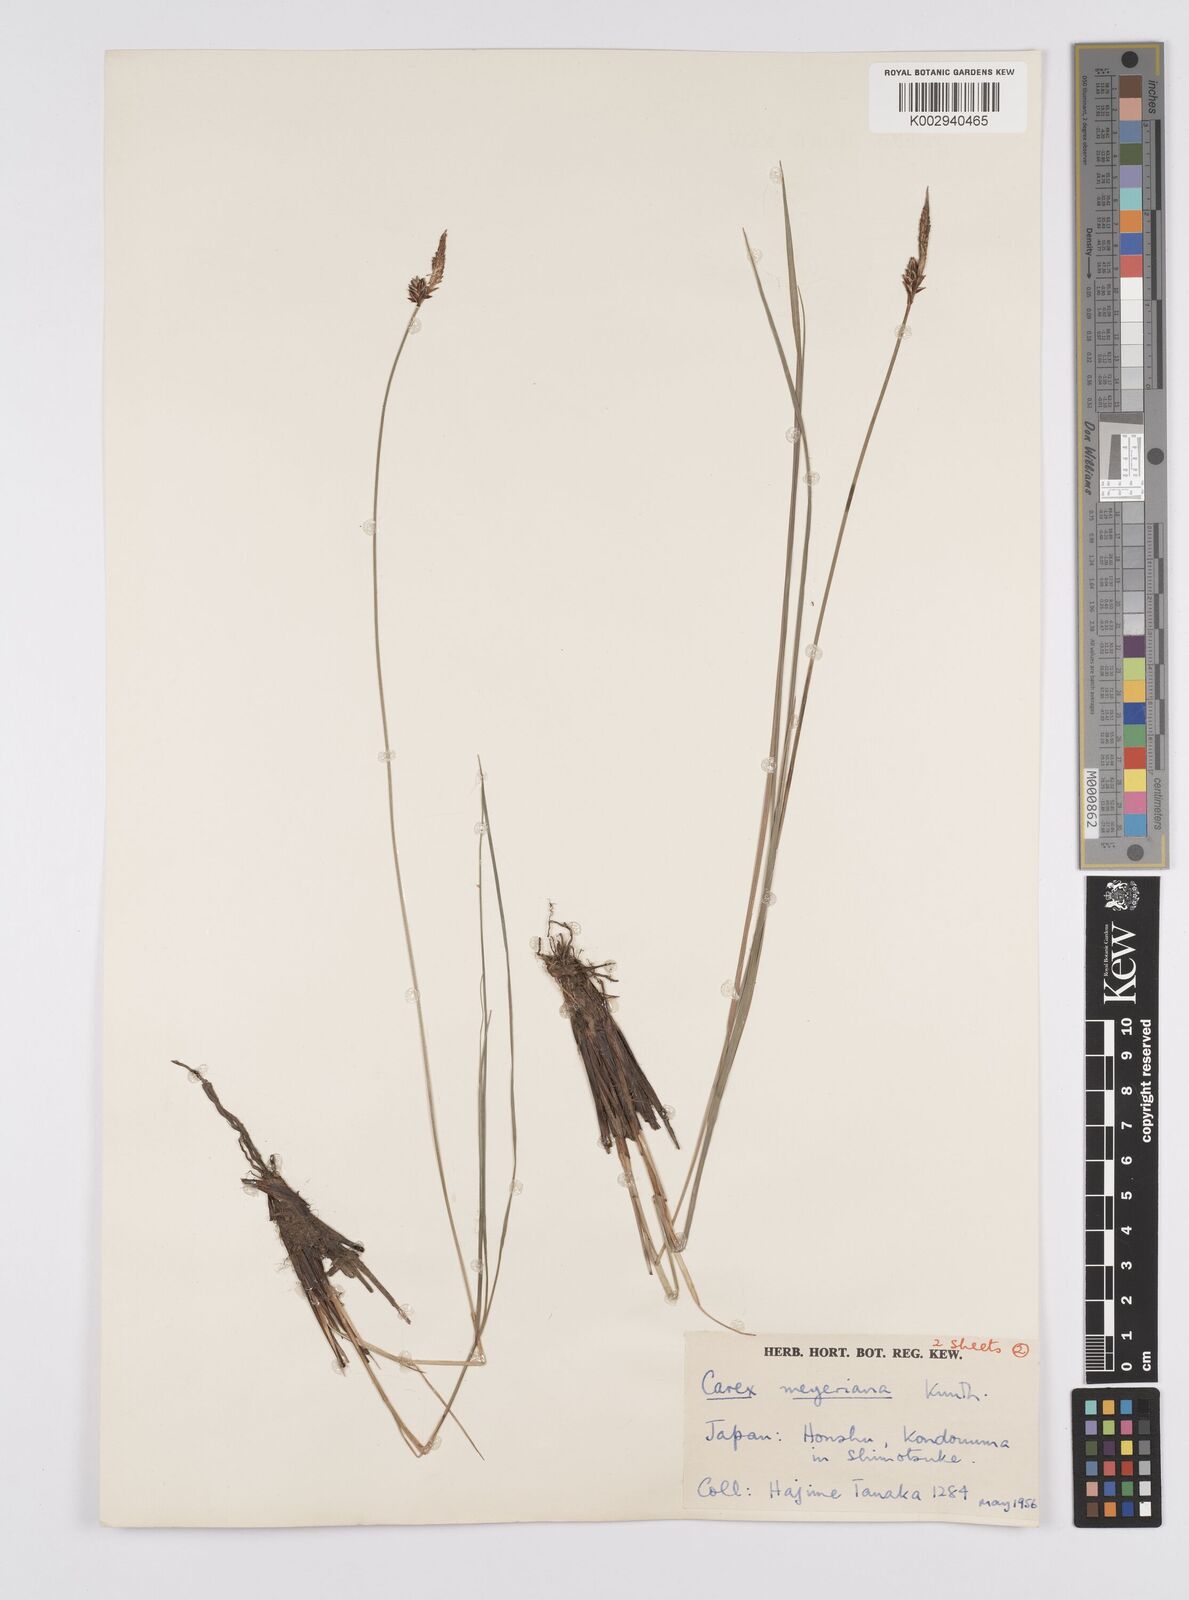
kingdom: Plantae
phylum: Tracheophyta
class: Liliopsida
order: Poales
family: Cyperaceae
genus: Carex
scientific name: Carex meyeriana
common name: Wula sedge
